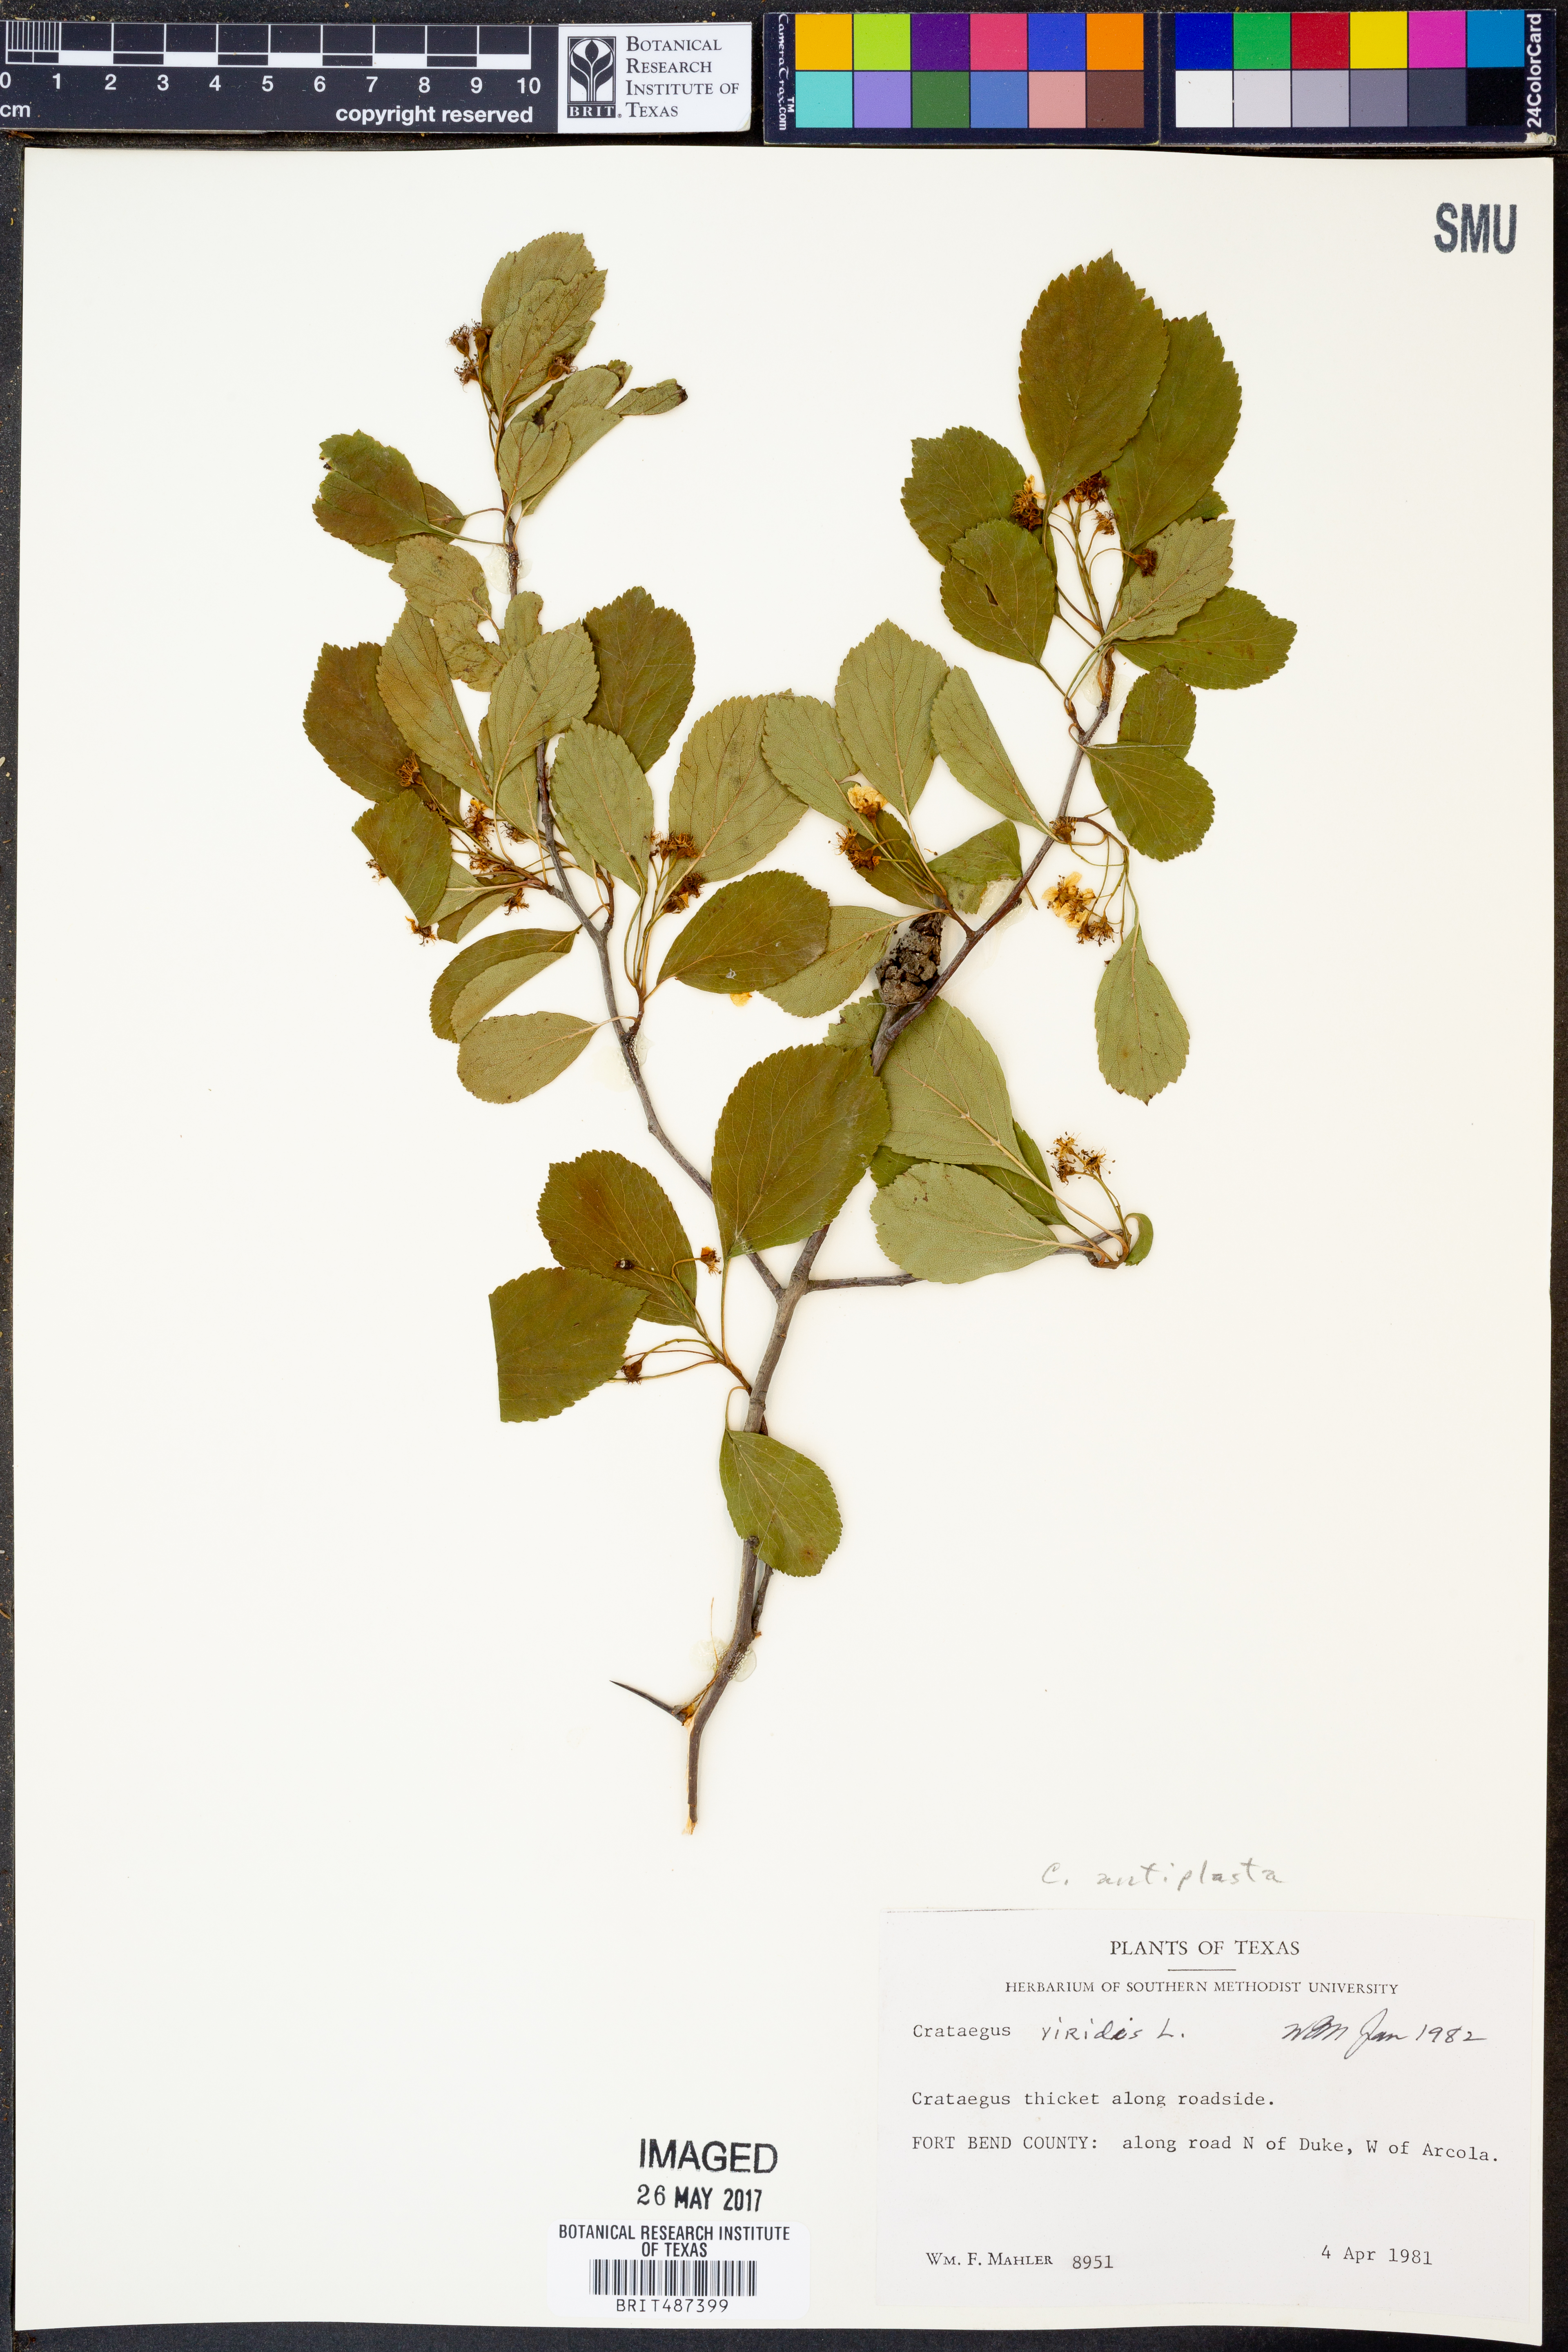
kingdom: Plantae
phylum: Tracheophyta
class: Magnoliopsida
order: Rosales
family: Rosaceae
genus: Crataegus
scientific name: Crataegus viridis
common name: Southernthorn
